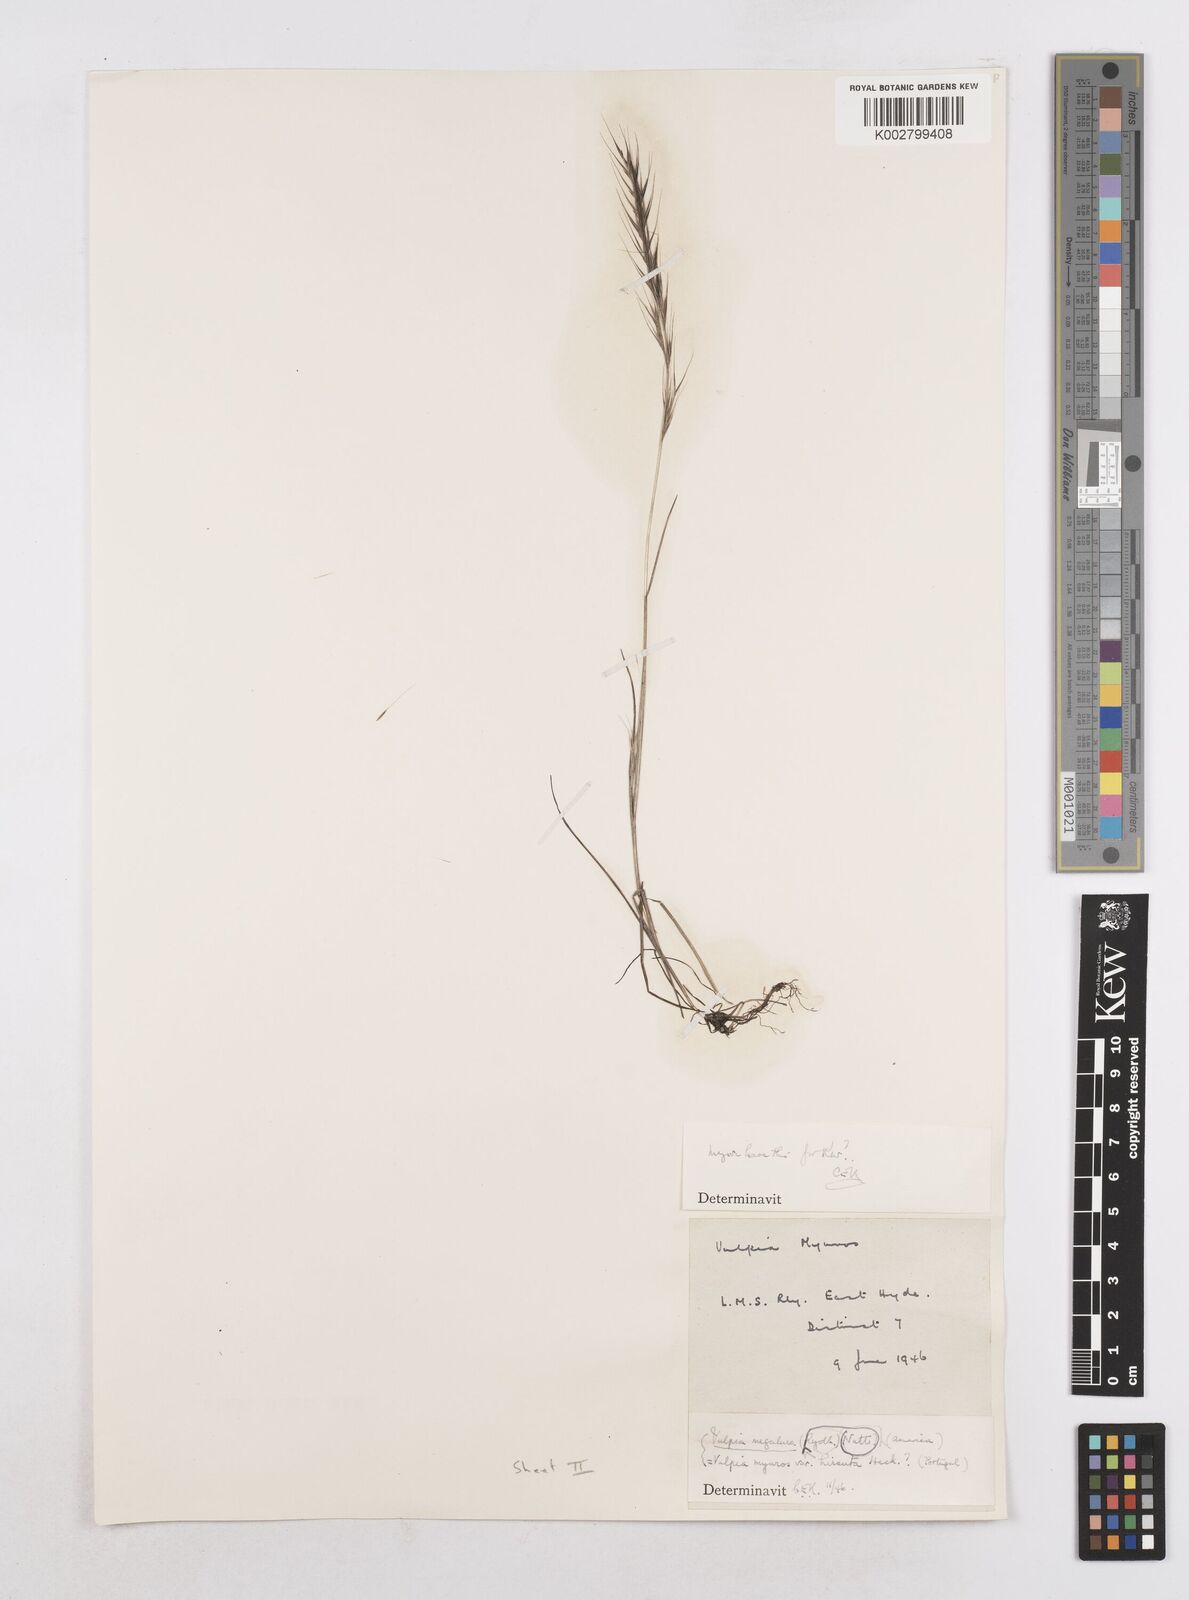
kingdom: Plantae
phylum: Tracheophyta
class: Liliopsida
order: Poales
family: Poaceae
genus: Festuca
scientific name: Festuca myuros
